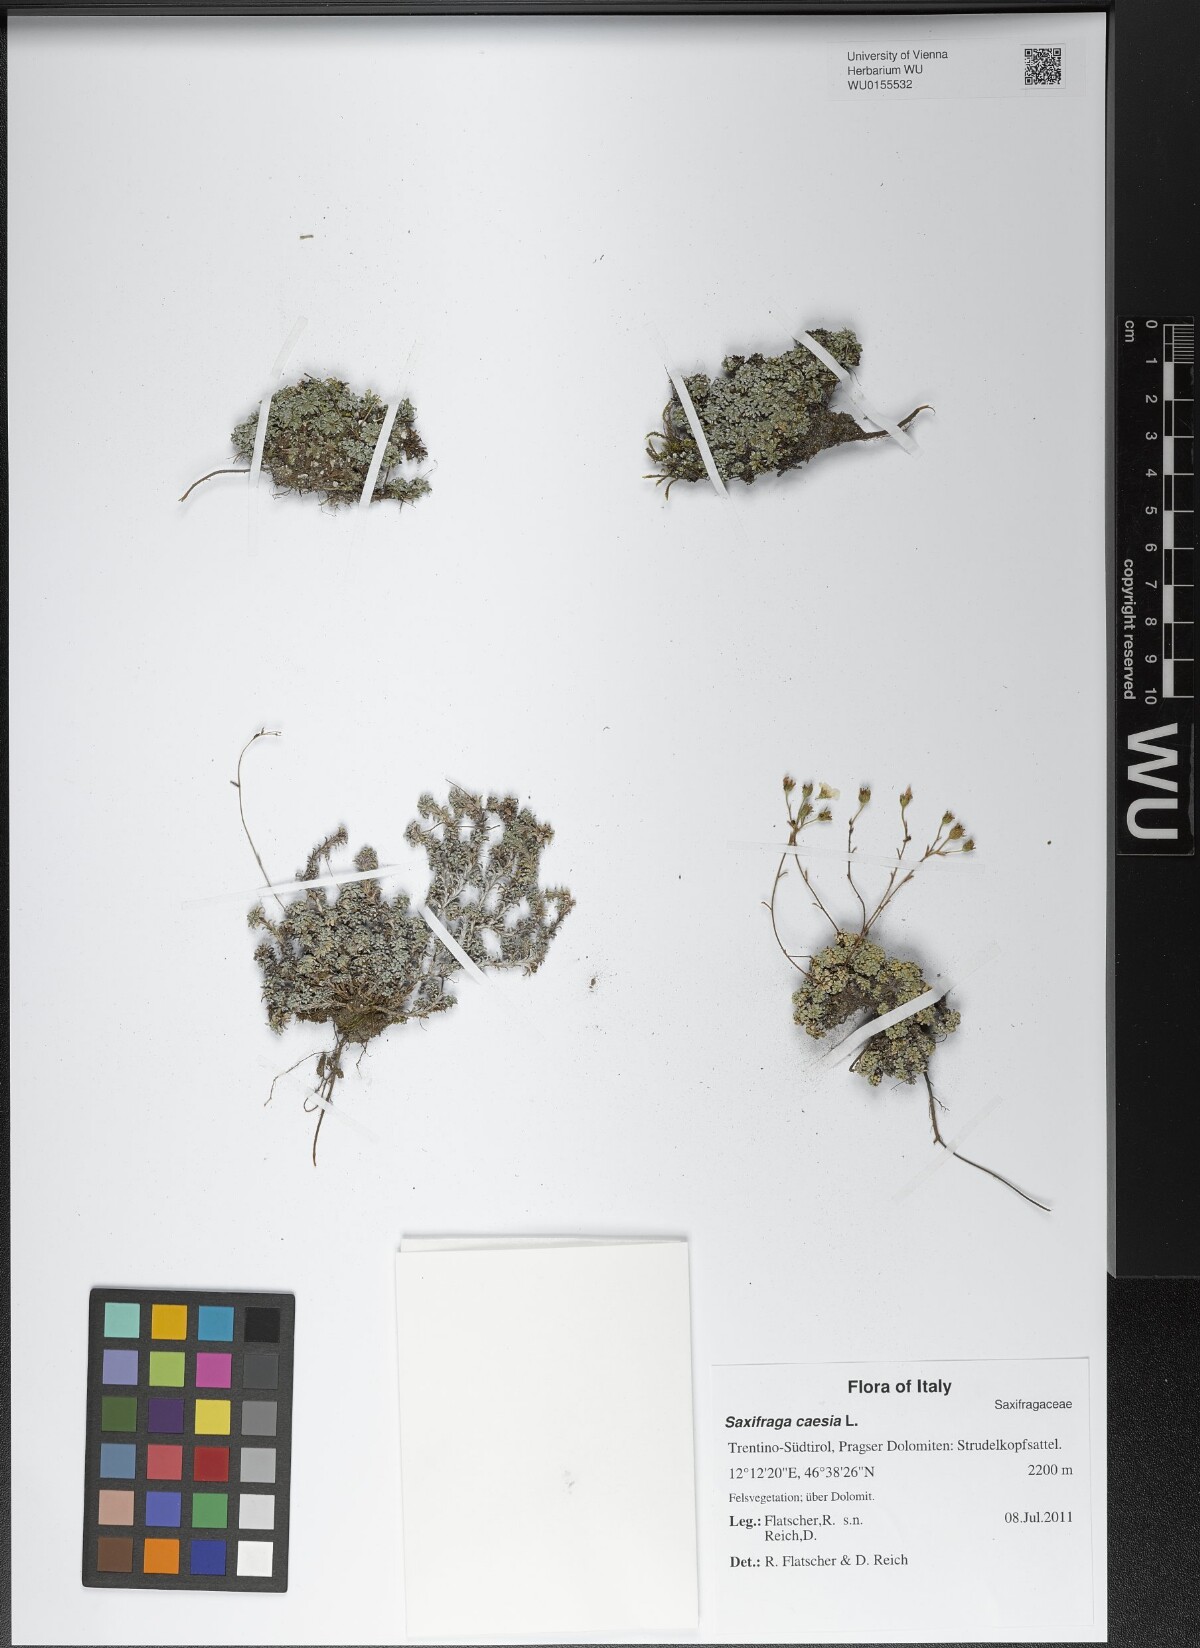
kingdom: Plantae
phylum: Tracheophyta
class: Magnoliopsida
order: Saxifragales
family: Saxifragaceae
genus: Saxifraga
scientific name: Saxifraga caesia
